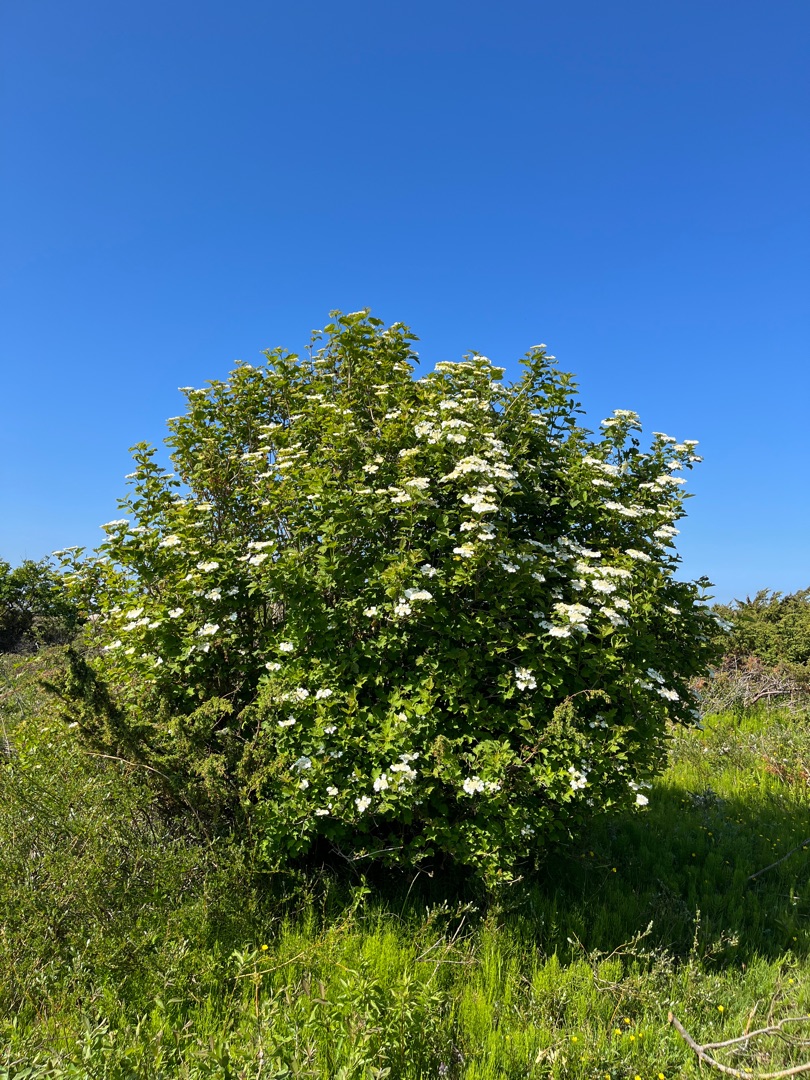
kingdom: Plantae
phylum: Tracheophyta
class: Magnoliopsida
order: Dipsacales
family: Viburnaceae
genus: Viburnum
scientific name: Viburnum opulus
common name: Kvalkved
